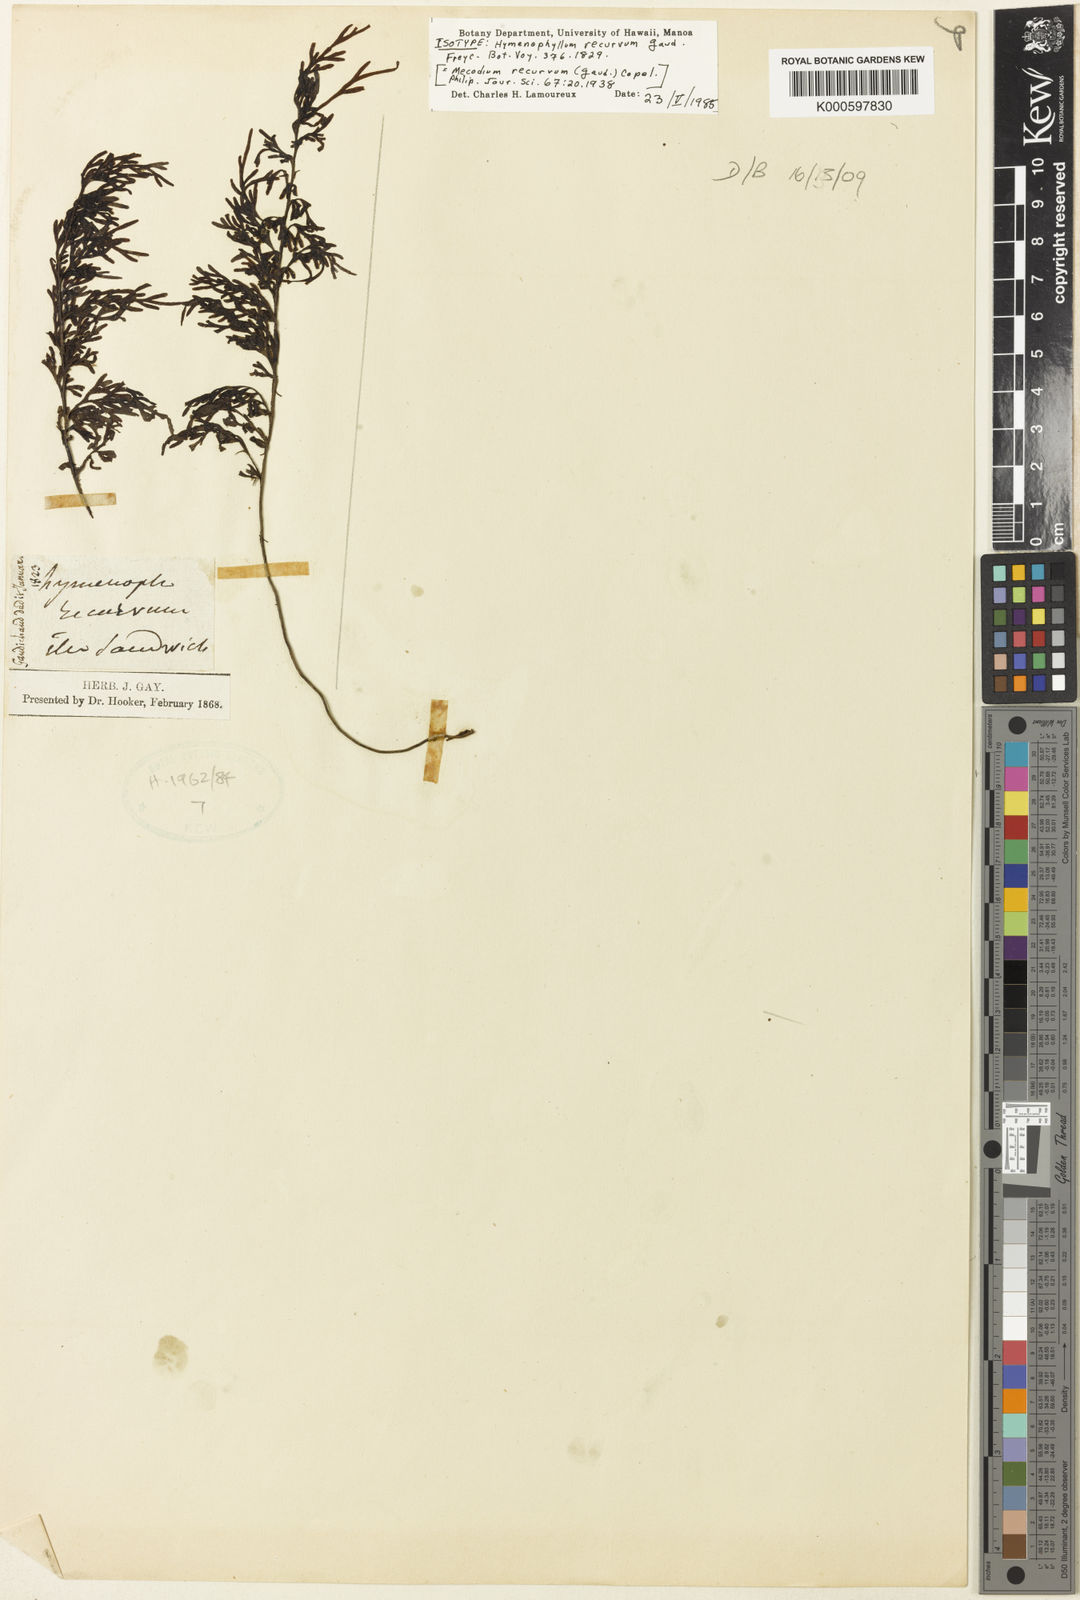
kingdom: Plantae
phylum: Tracheophyta
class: Polypodiopsida
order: Hymenophyllales
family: Hymenophyllaceae
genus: Hymenophyllum
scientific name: Hymenophyllum recurvum
